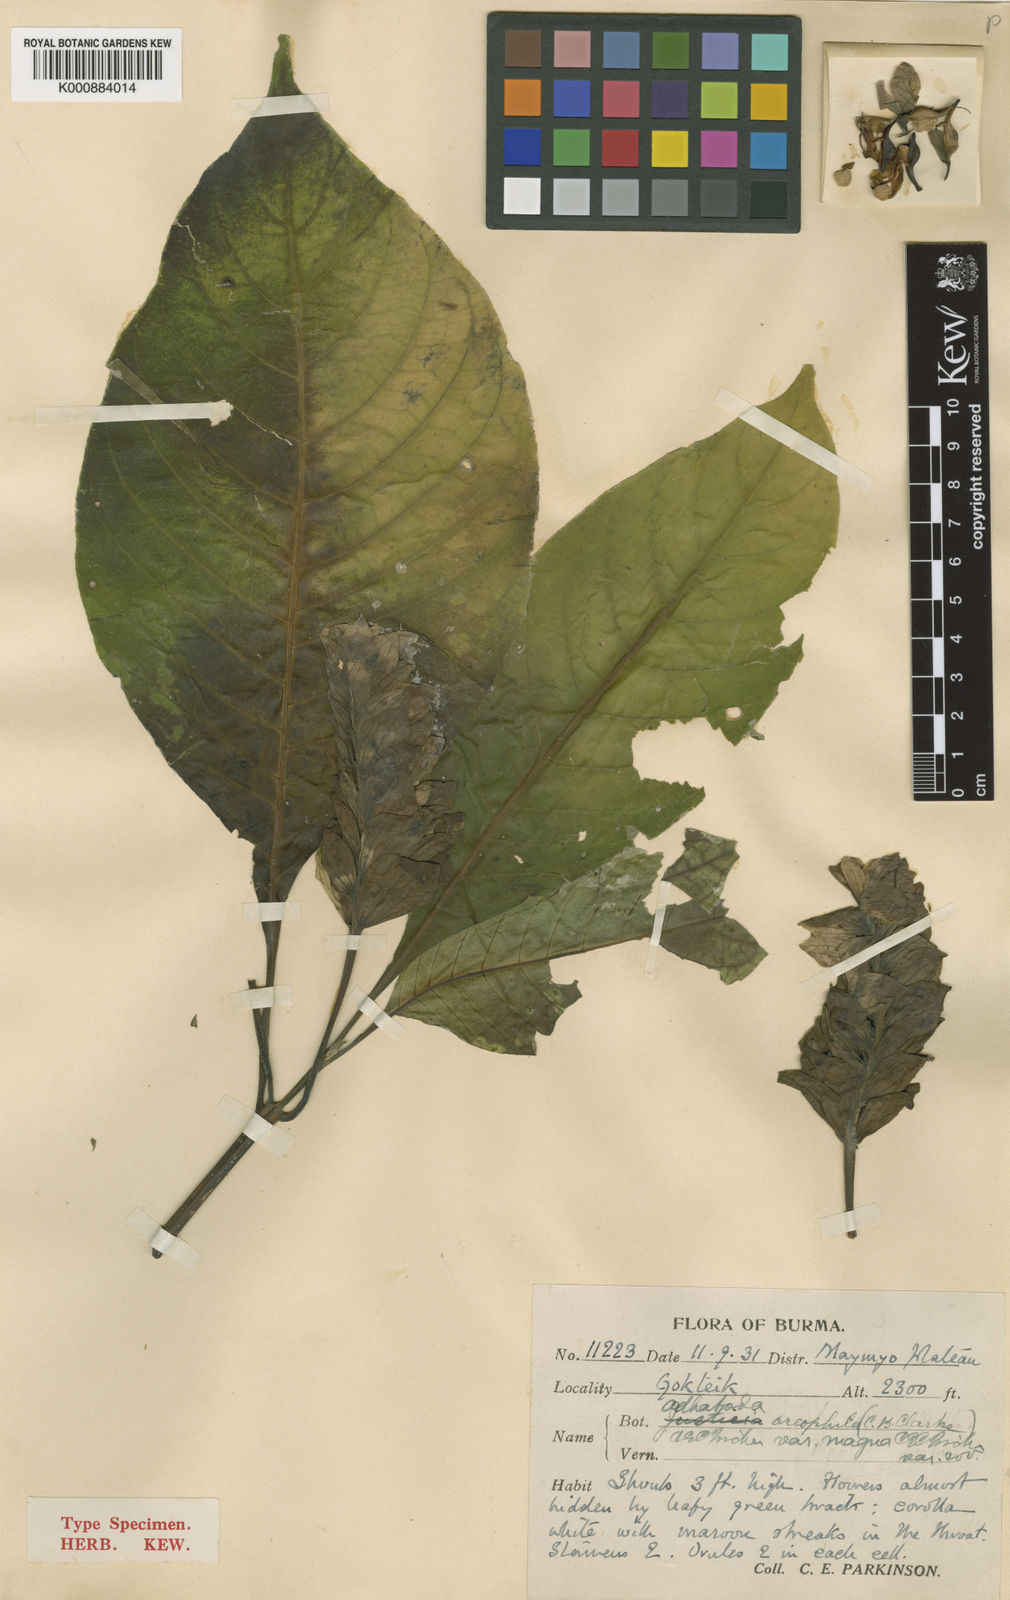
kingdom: Plantae
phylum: Tracheophyta
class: Magnoliopsida
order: Lamiales
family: Acanthaceae
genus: Justicia
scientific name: Justicia oreophila
